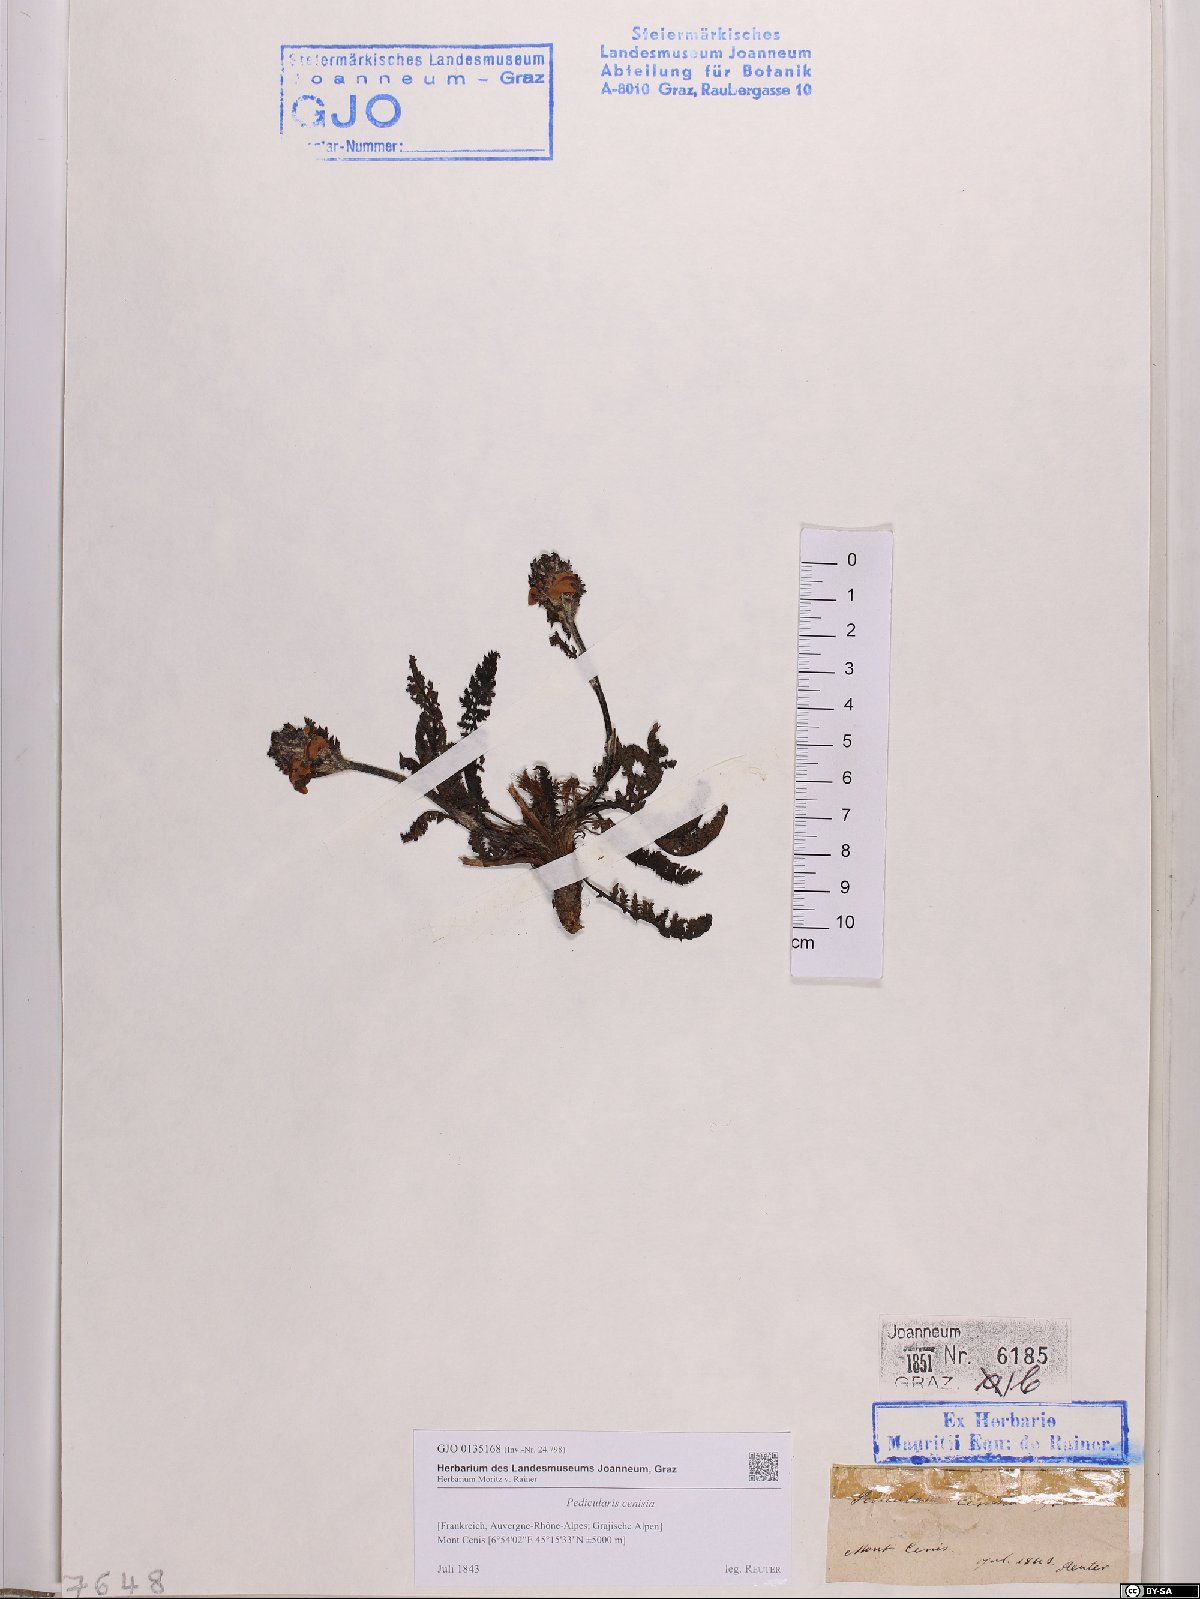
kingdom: Plantae
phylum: Tracheophyta
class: Magnoliopsida
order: Lamiales
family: Orobanchaceae
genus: Pedicularis
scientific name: Pedicularis cenisia
